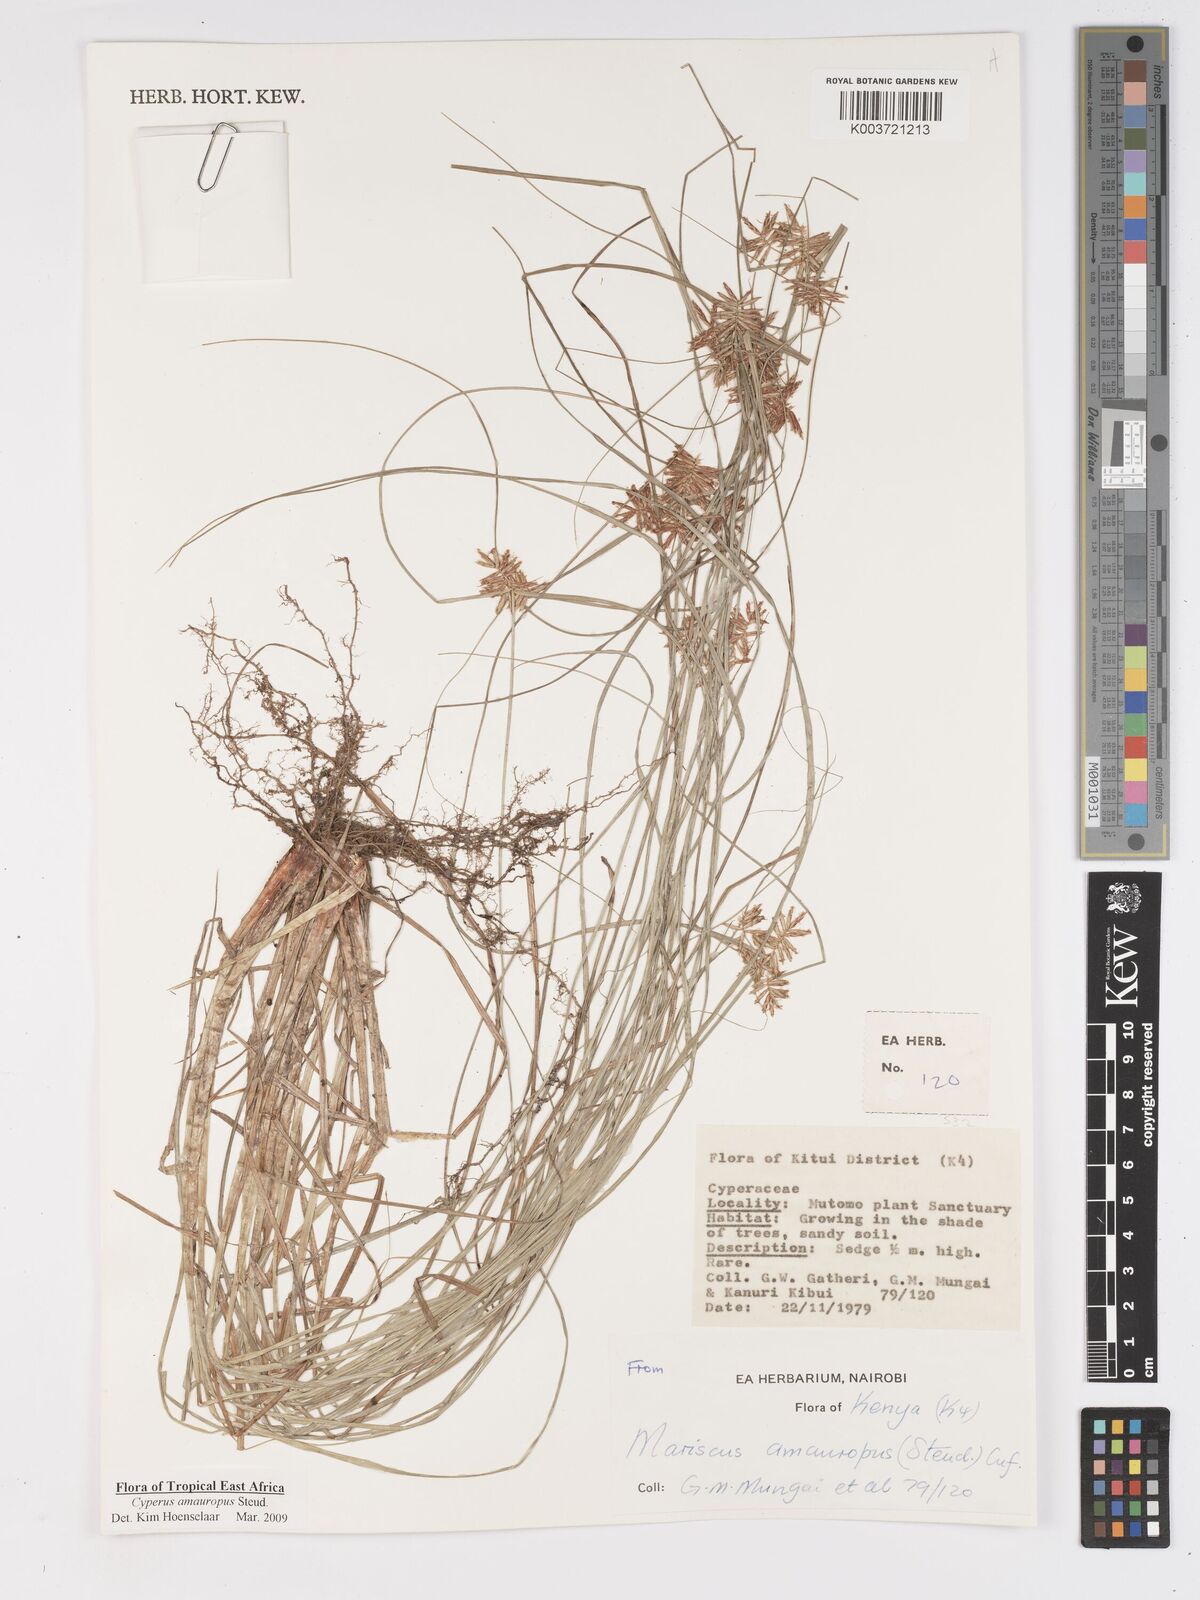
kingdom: Plantae
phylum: Tracheophyta
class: Liliopsida
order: Poales
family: Cyperaceae
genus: Cyperus
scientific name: Cyperus amauropus
